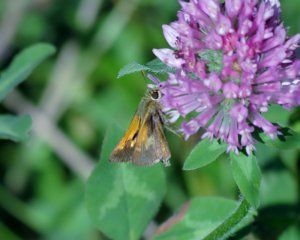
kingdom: Animalia
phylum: Arthropoda
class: Insecta
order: Lepidoptera
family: Hesperiidae
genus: Polites
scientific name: Polites themistocles
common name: Tawny-edged Skipper
